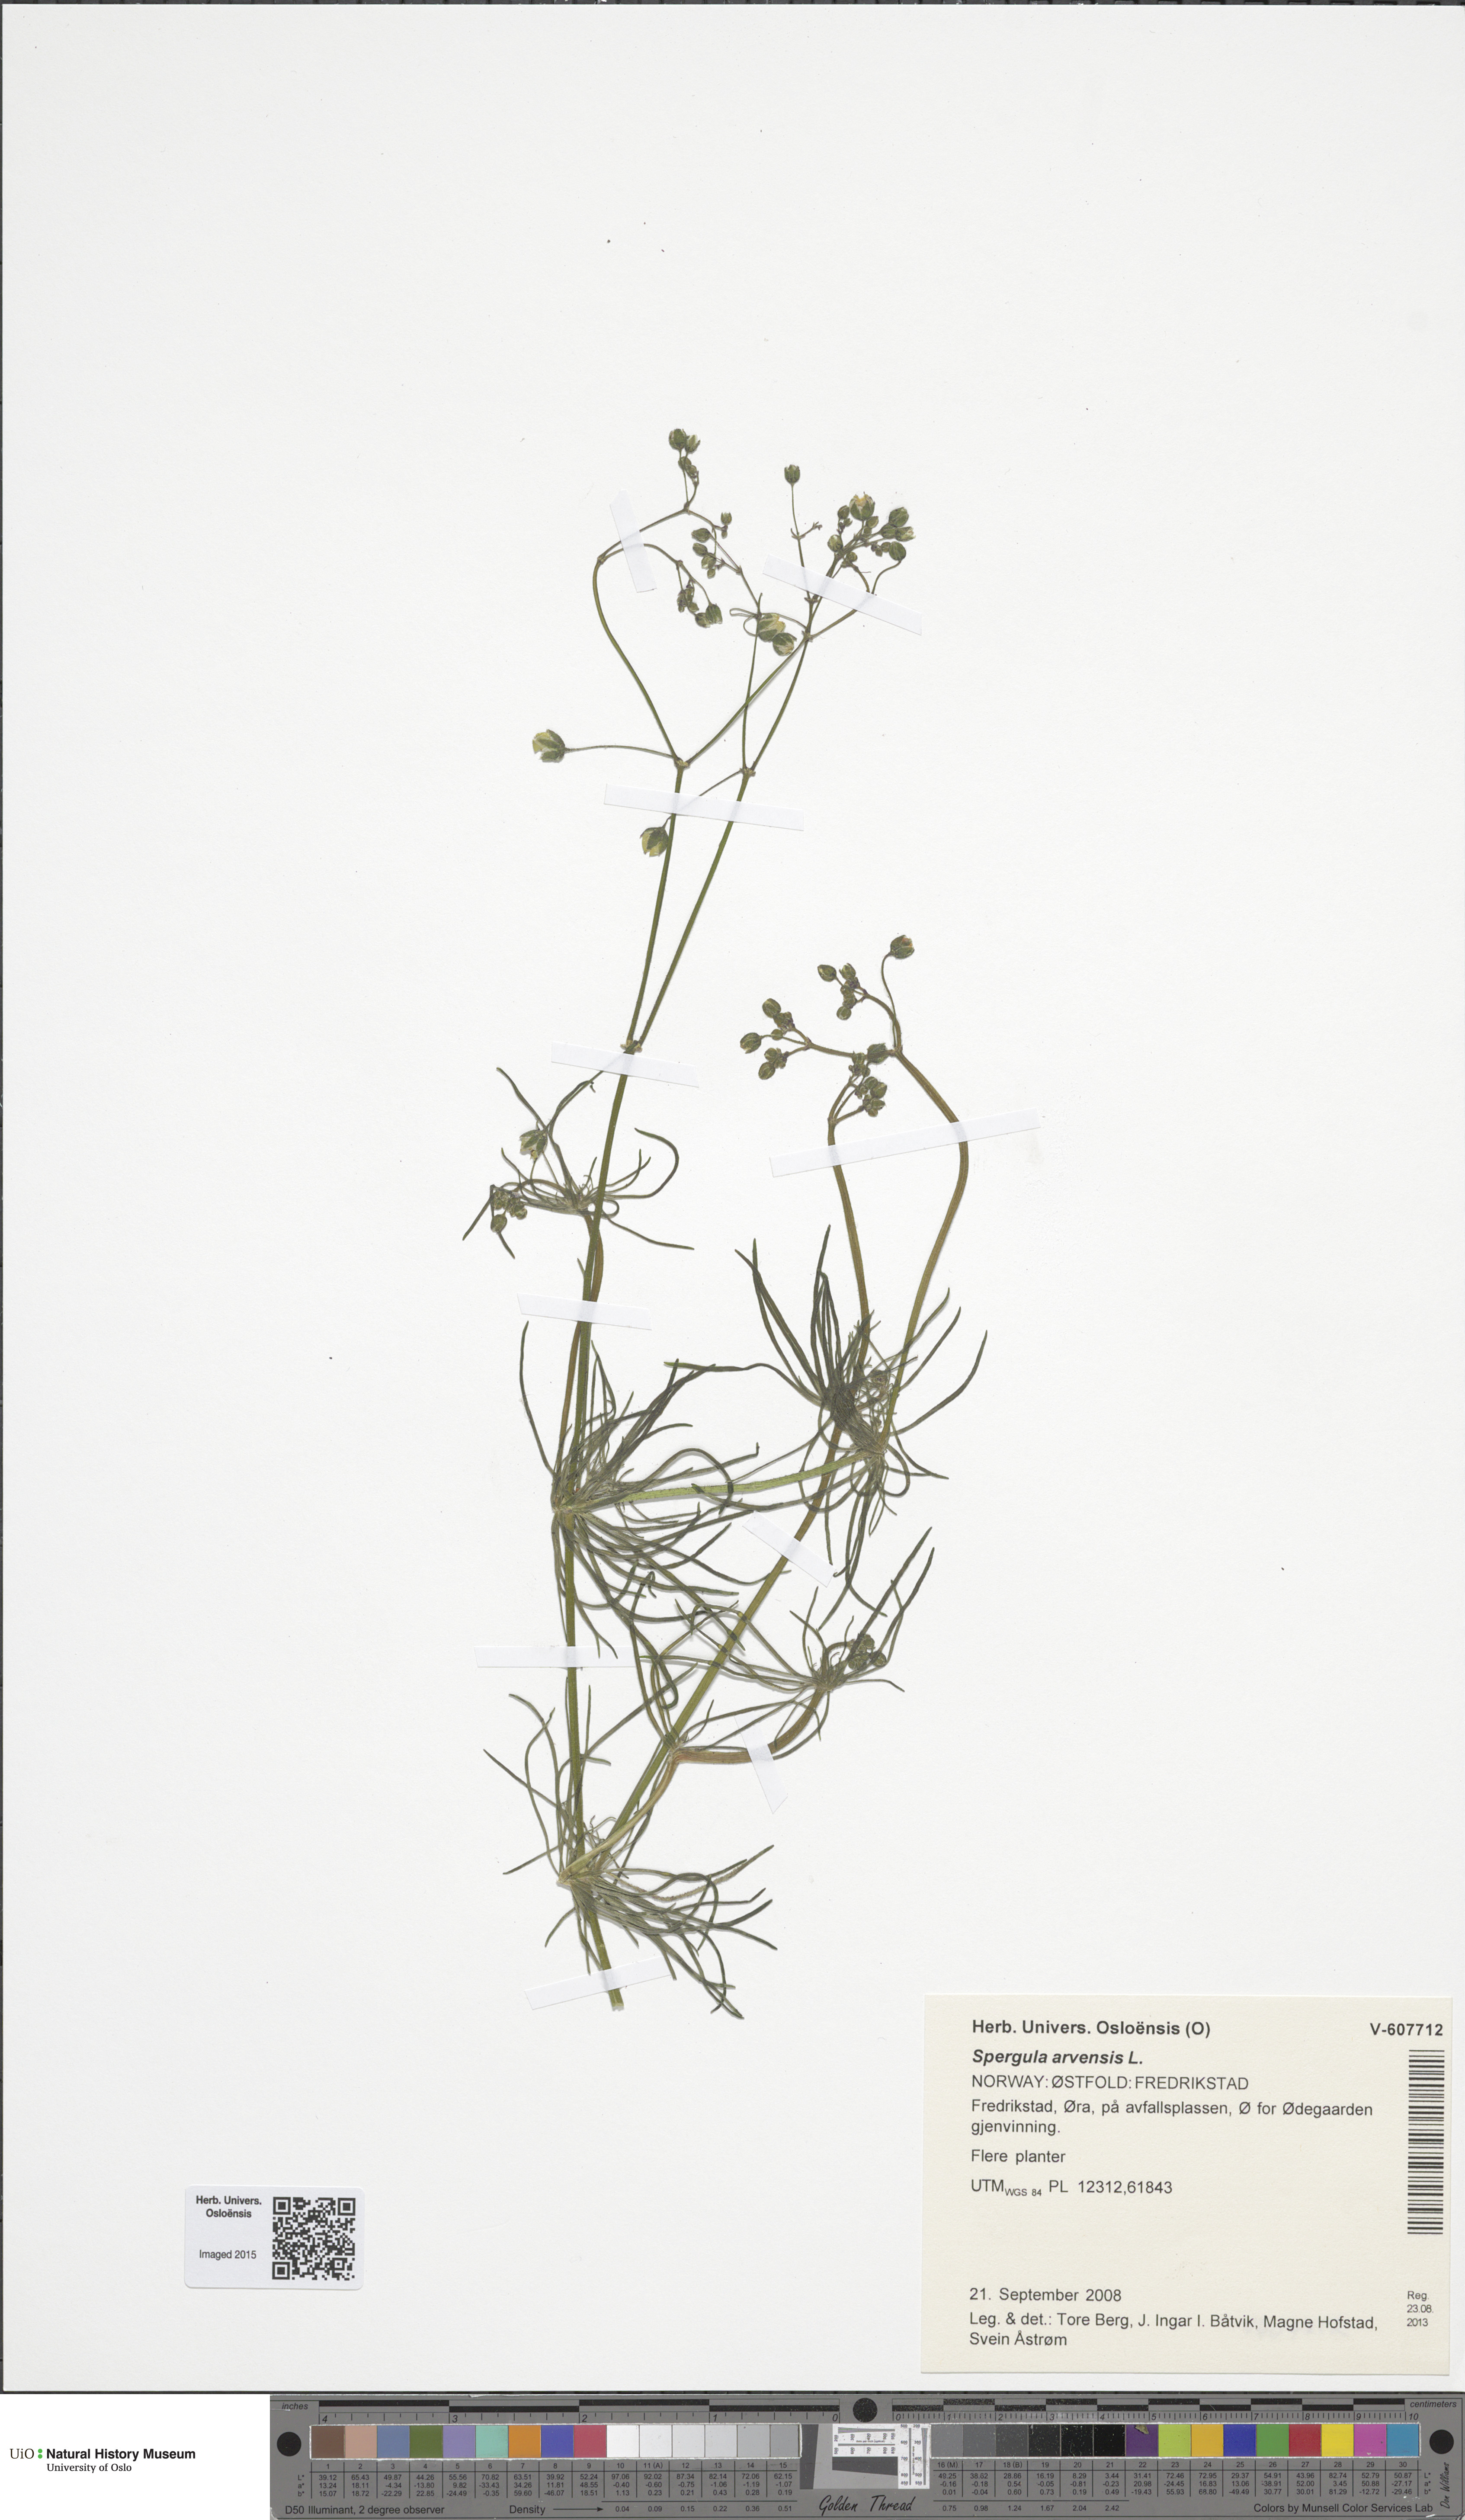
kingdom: Plantae
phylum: Tracheophyta
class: Magnoliopsida
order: Caryophyllales
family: Caryophyllaceae
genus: Spergula
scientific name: Spergula arvensis
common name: Corn spurrey
